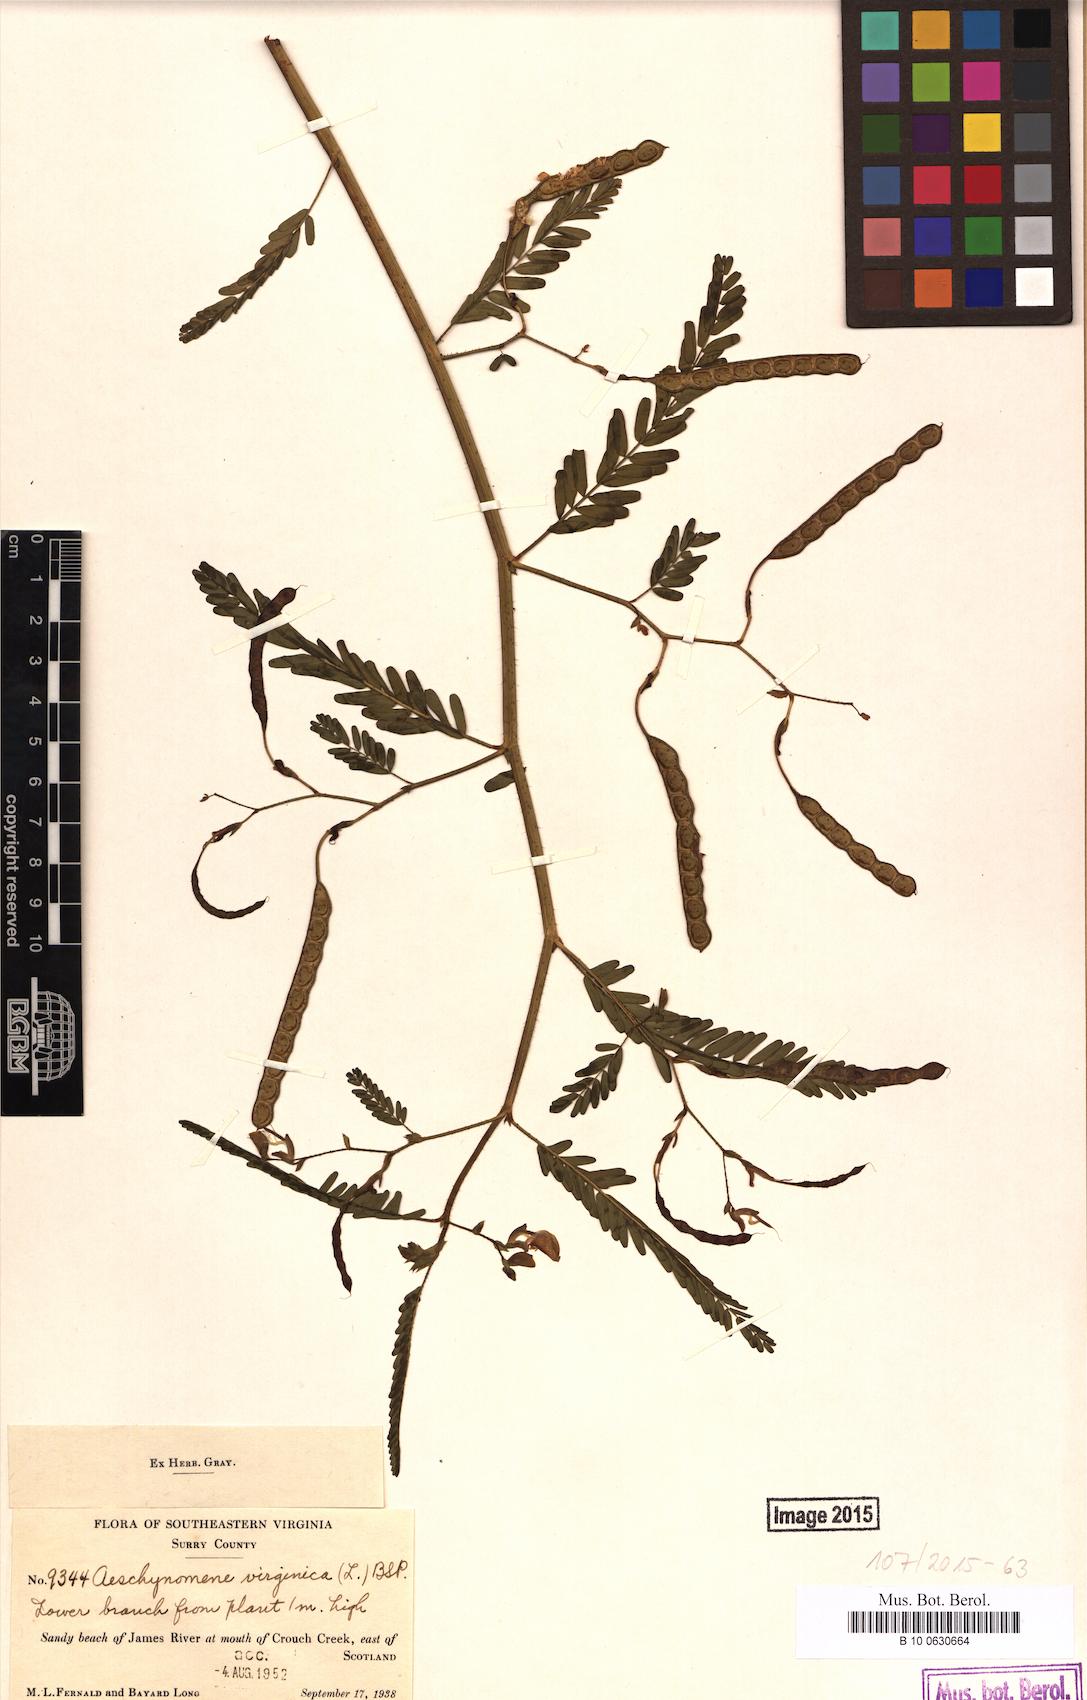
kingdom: Plantae
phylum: Tracheophyta
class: Magnoliopsida
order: Fabales
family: Fabaceae
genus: Aeschynomene
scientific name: Aeschynomene virginica
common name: Sensitive joint-vetch
